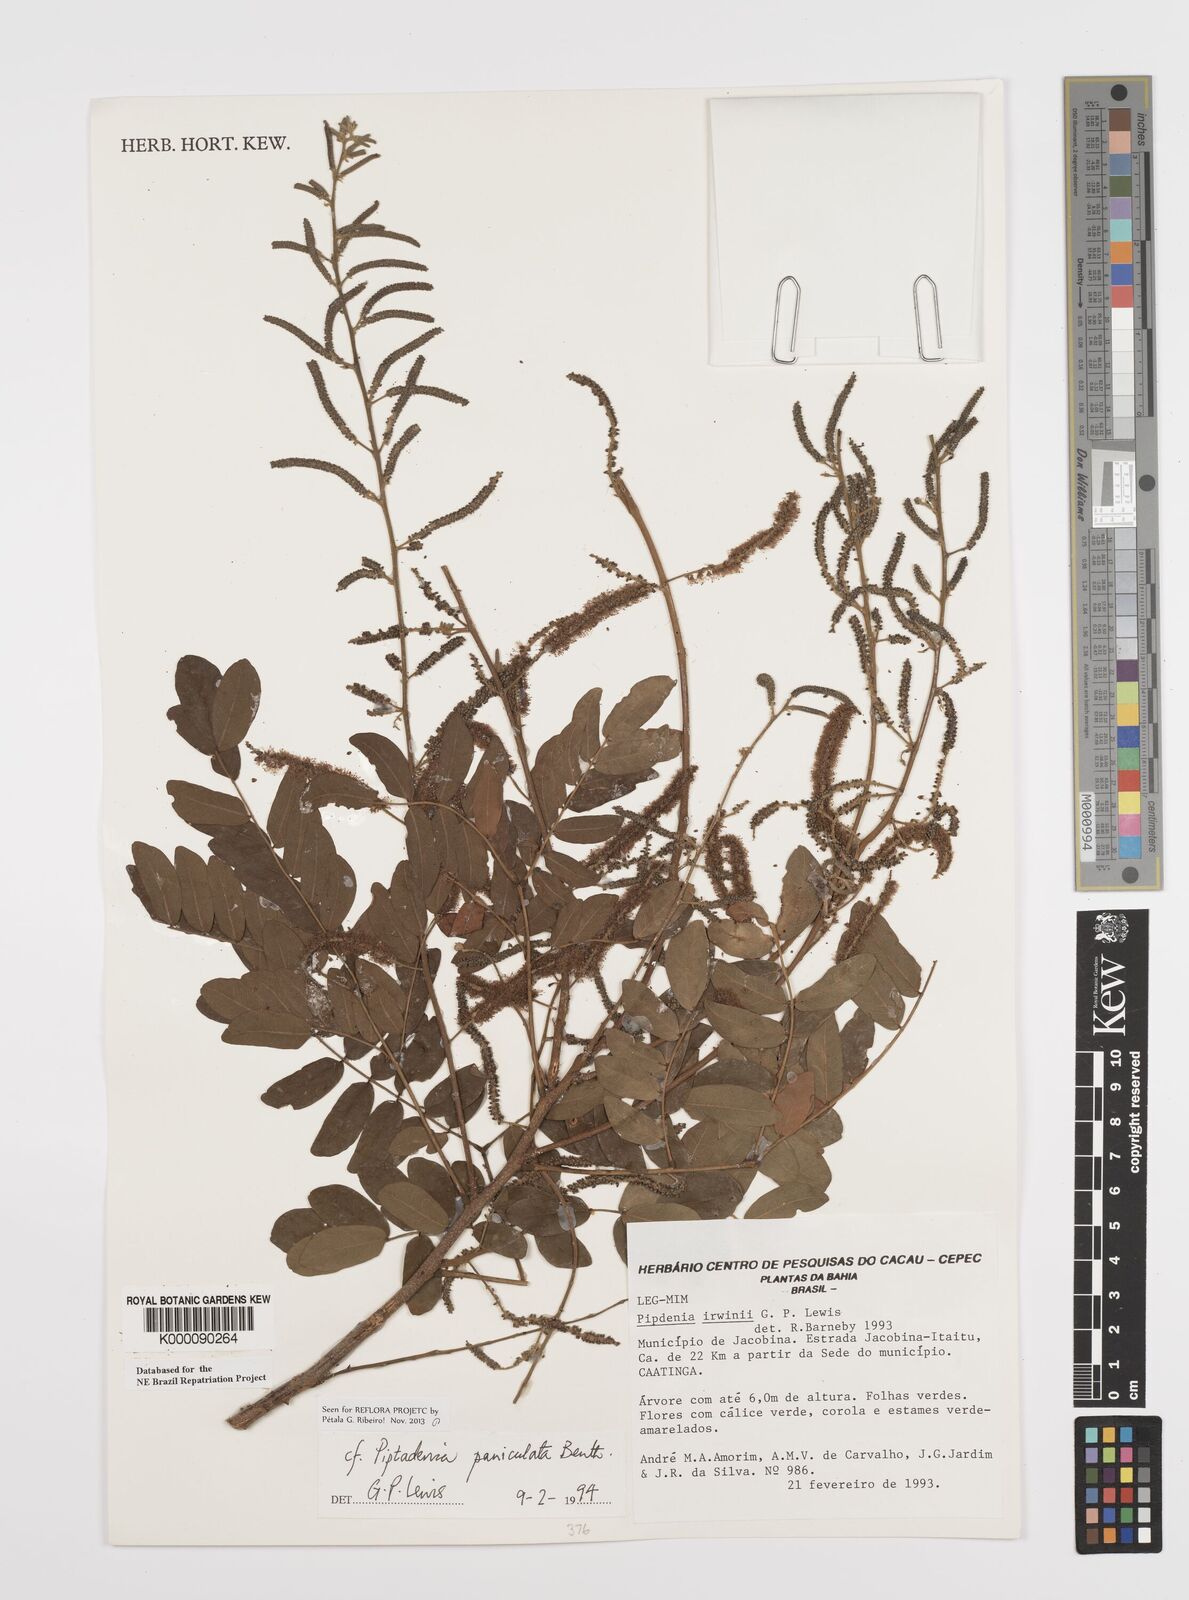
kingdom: Plantae
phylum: Tracheophyta
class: Magnoliopsida
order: Fabales
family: Fabaceae
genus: Piptadenia
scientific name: Piptadenia paniculata
